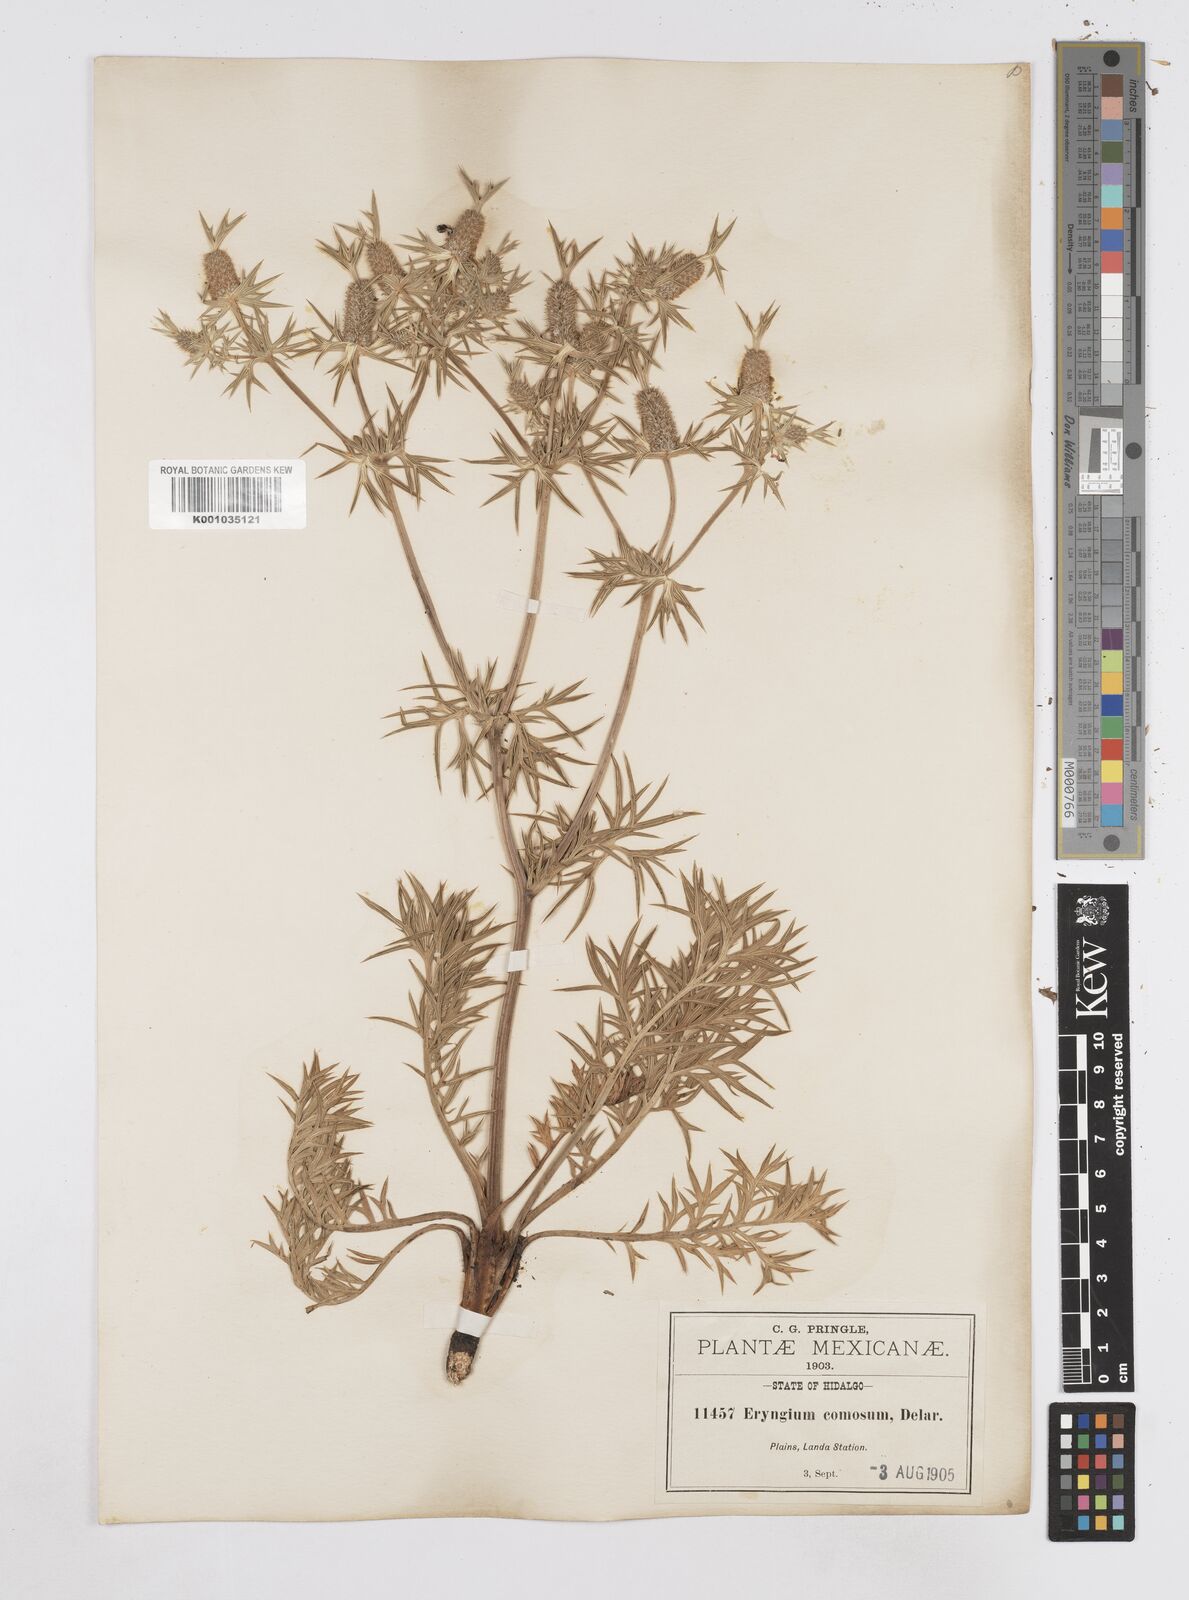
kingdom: Plantae
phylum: Tracheophyta
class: Magnoliopsida
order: Apiales
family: Apiaceae
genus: Eryngium
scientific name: Eryngium comosum
